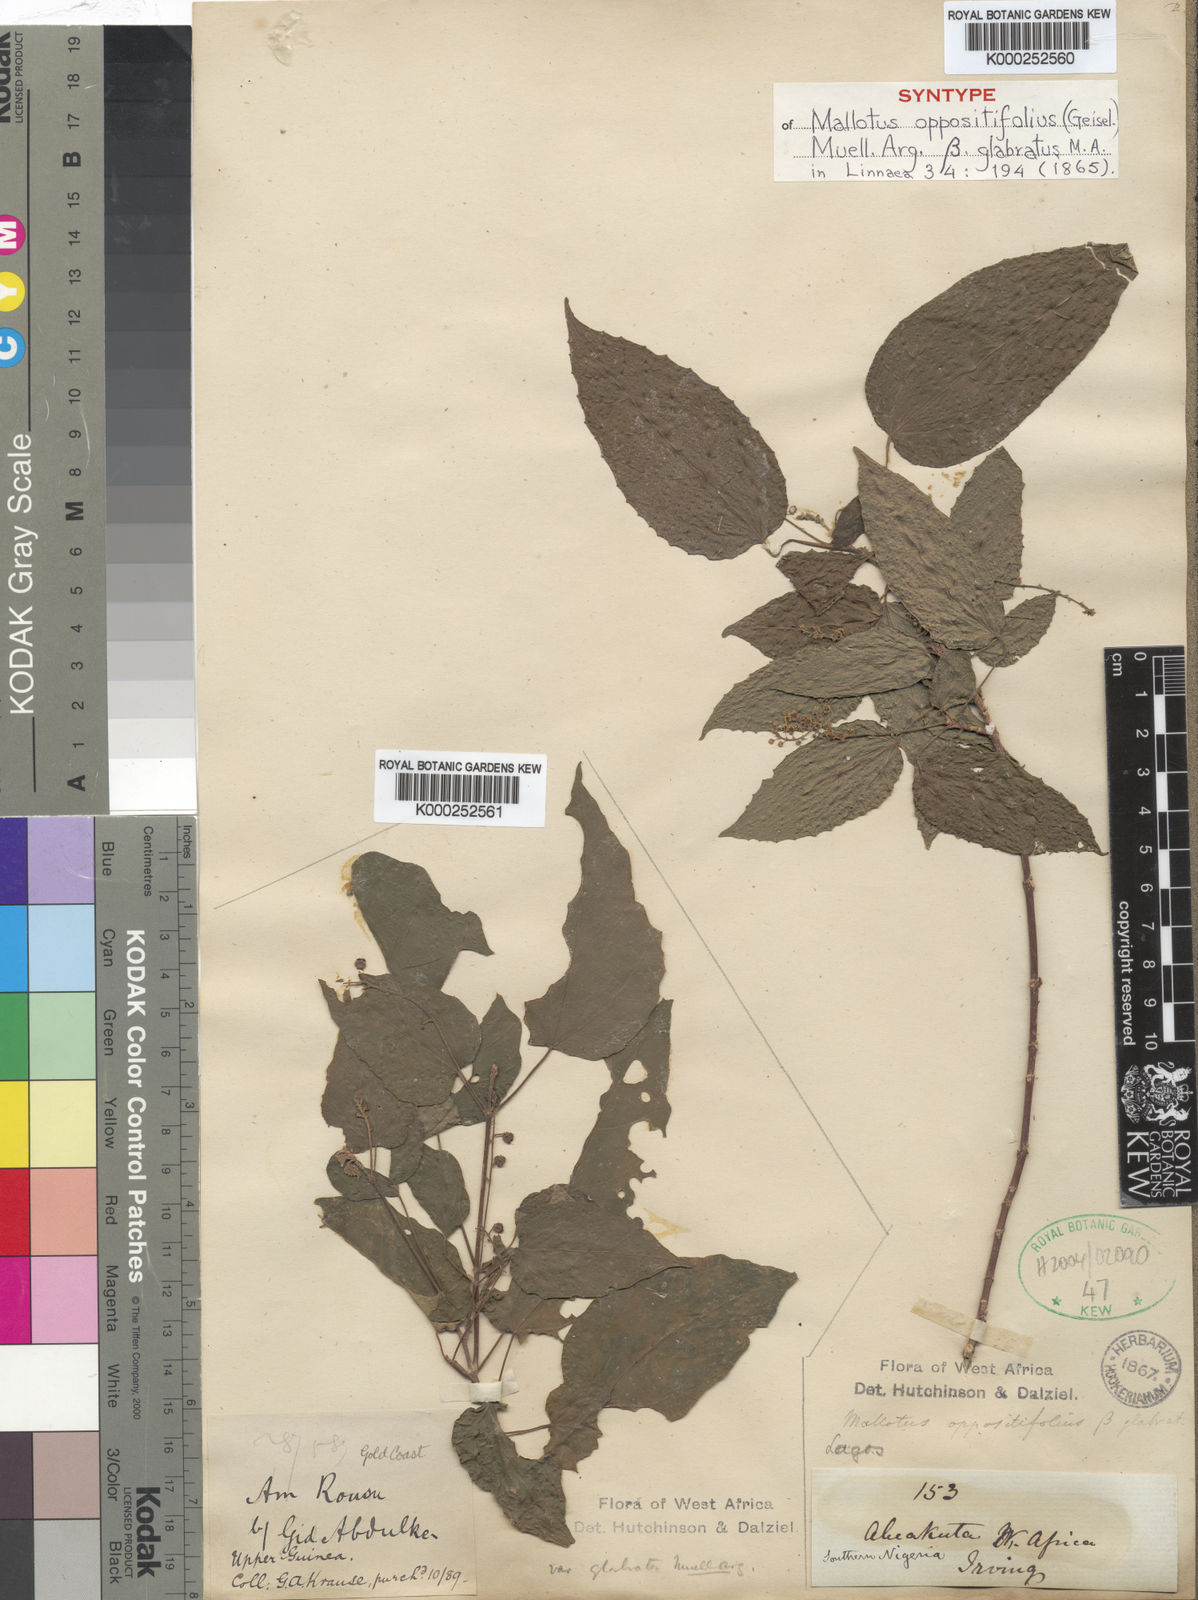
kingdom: Plantae
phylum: Tracheophyta
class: Magnoliopsida
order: Malpighiales
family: Euphorbiaceae
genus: Mallotus
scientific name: Mallotus
